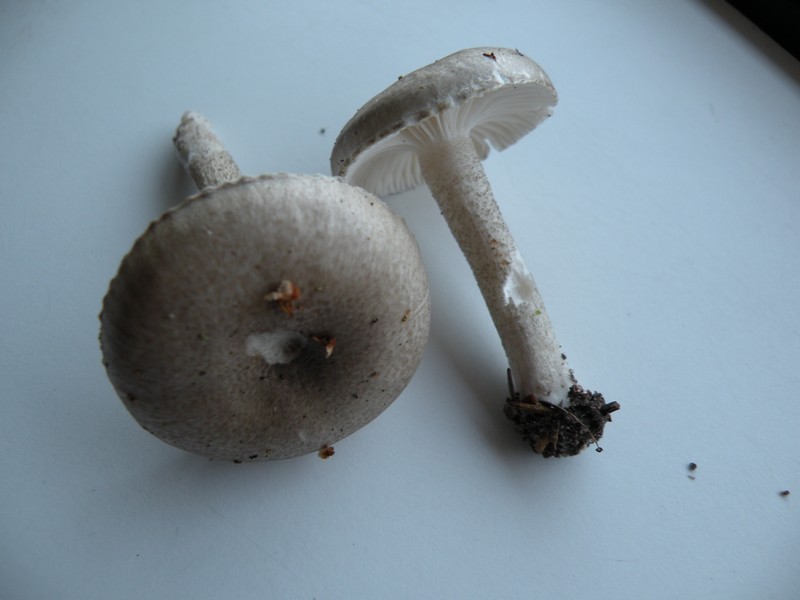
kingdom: Fungi
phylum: Basidiomycota
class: Agaricomycetes
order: Agaricales
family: Hygrophoraceae
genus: Hygrophorus
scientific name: Hygrophorus pustulatus
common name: mørkprikket sneglehat
